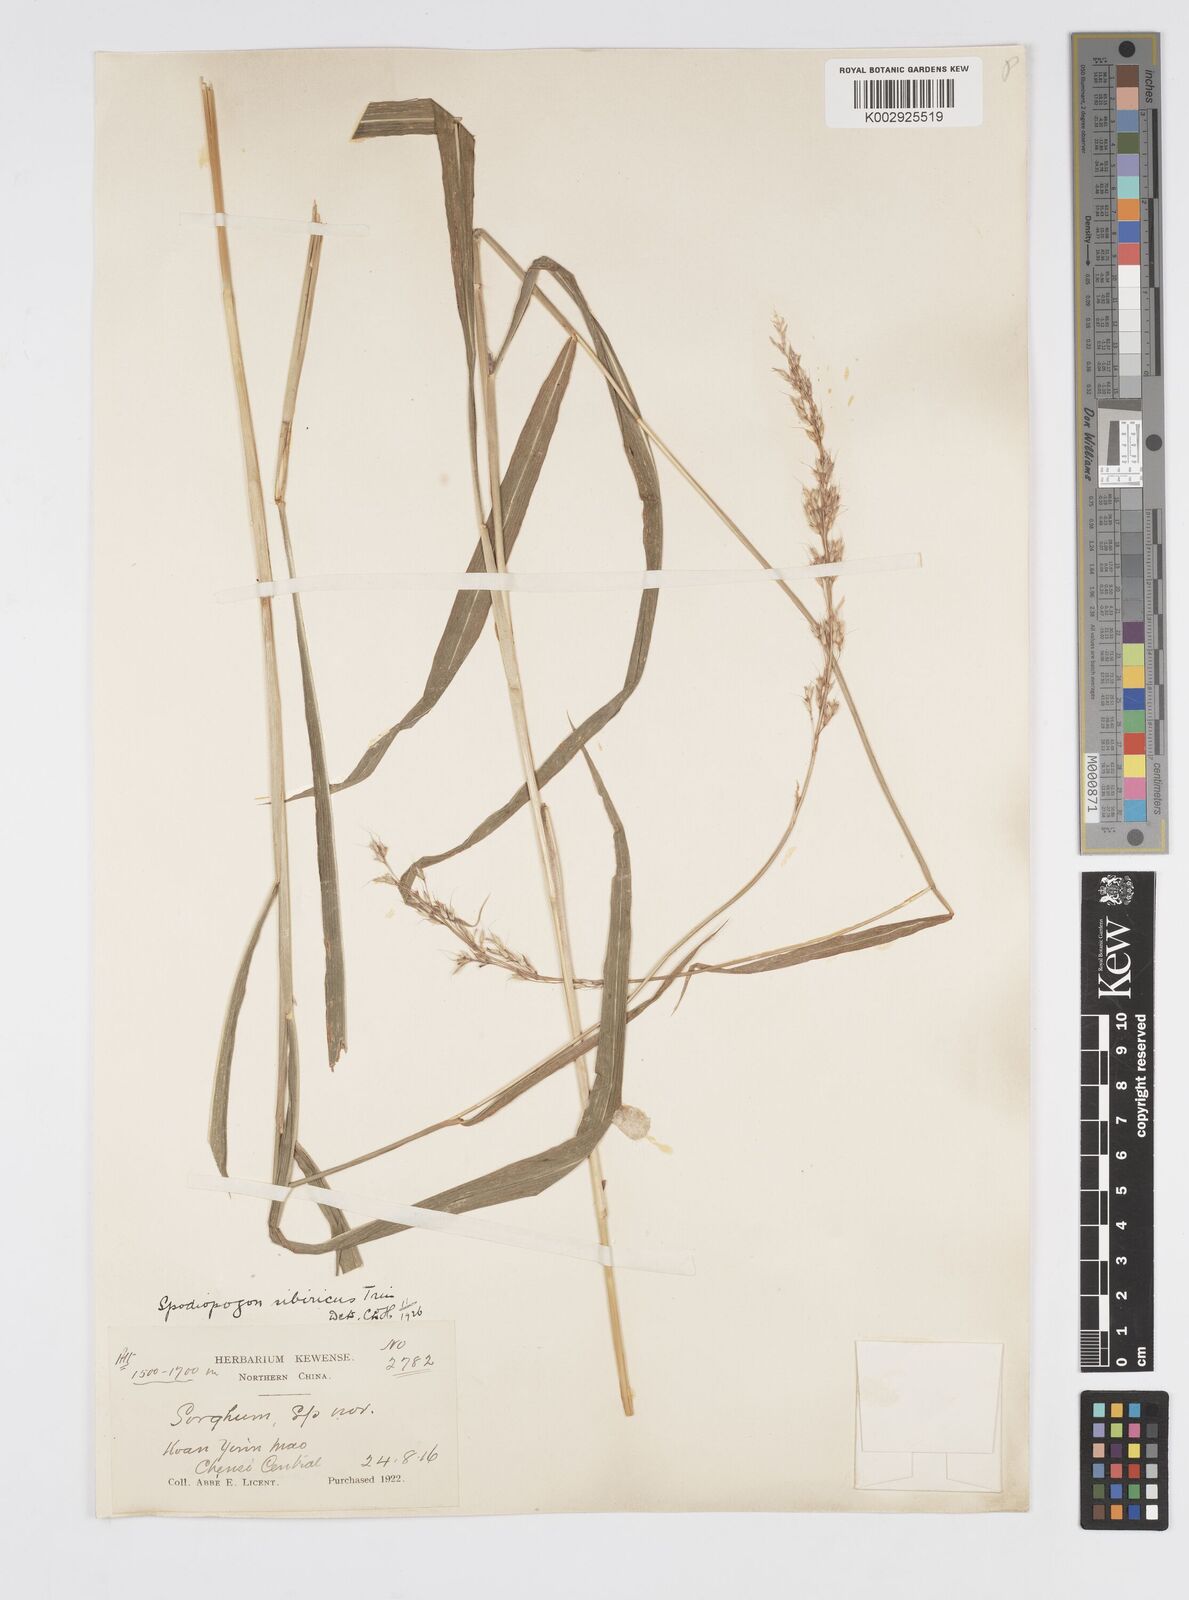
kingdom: Plantae
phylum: Tracheophyta
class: Liliopsida
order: Poales
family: Poaceae
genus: Spodiopogon
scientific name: Spodiopogon sibiricus
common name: Siberian graybeard
